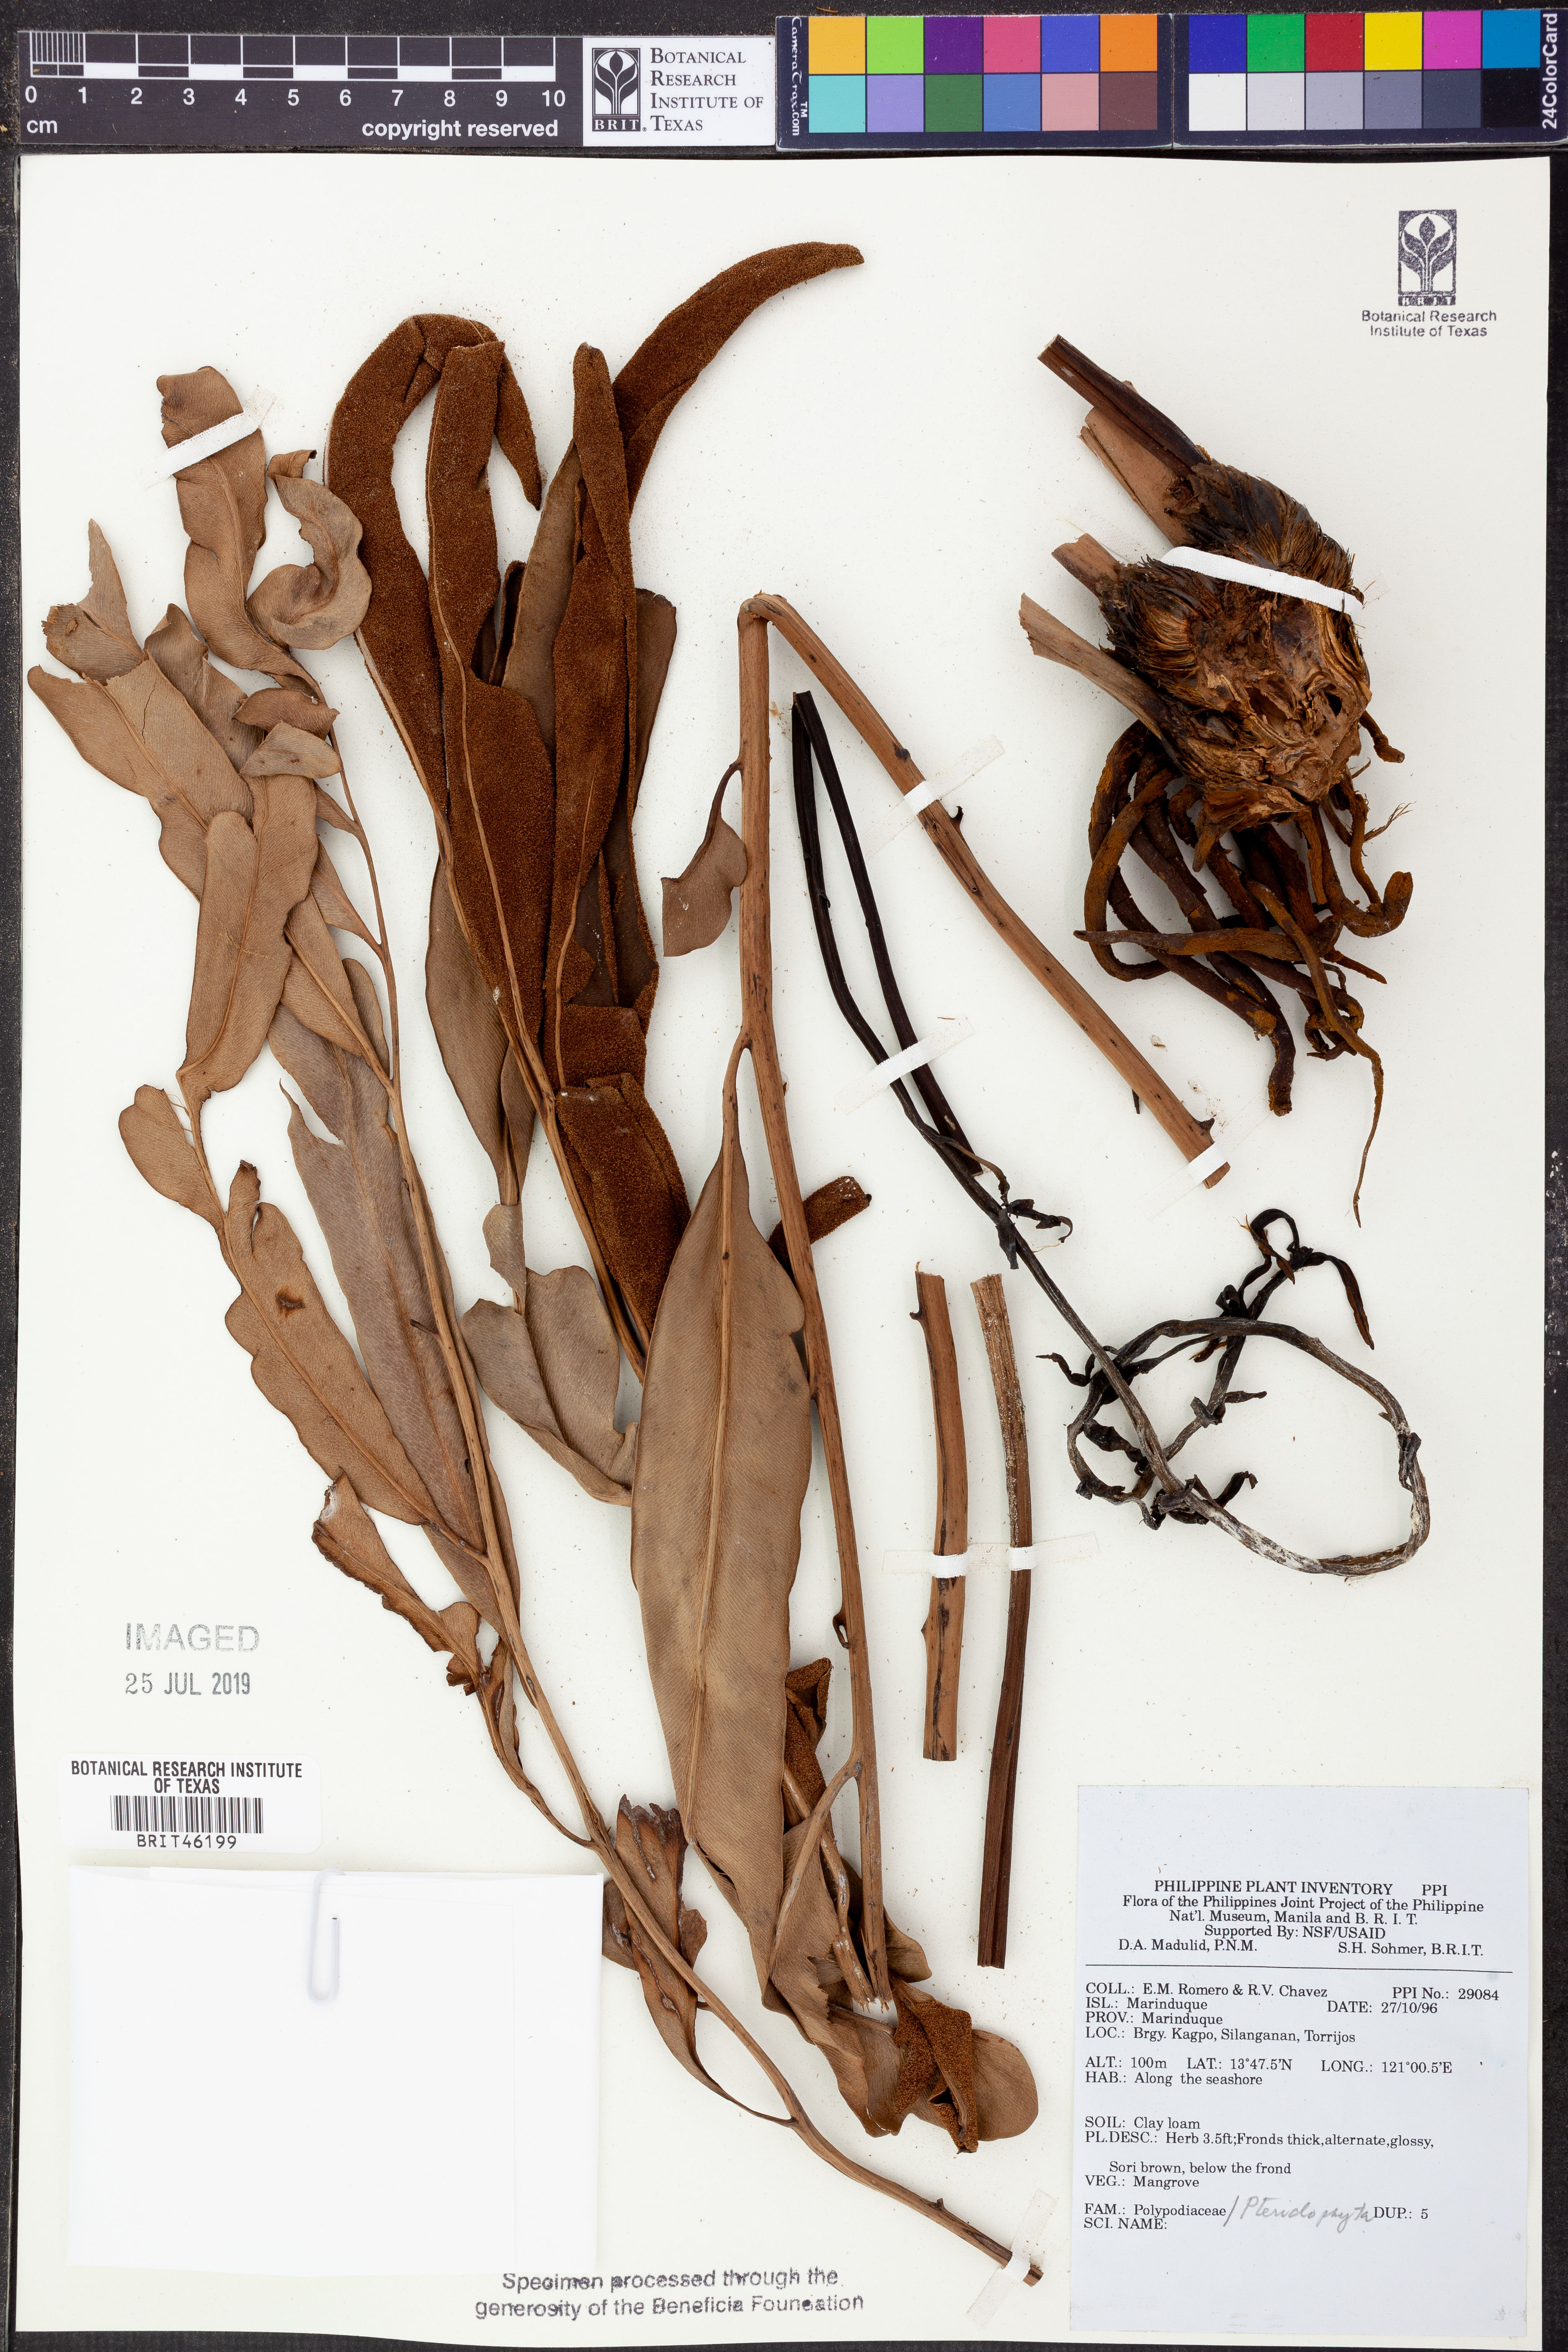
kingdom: Plantae
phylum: Tracheophyta
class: Polypodiopsida
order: Polypodiales
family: Polypodiaceae
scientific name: Polypodiaceae
